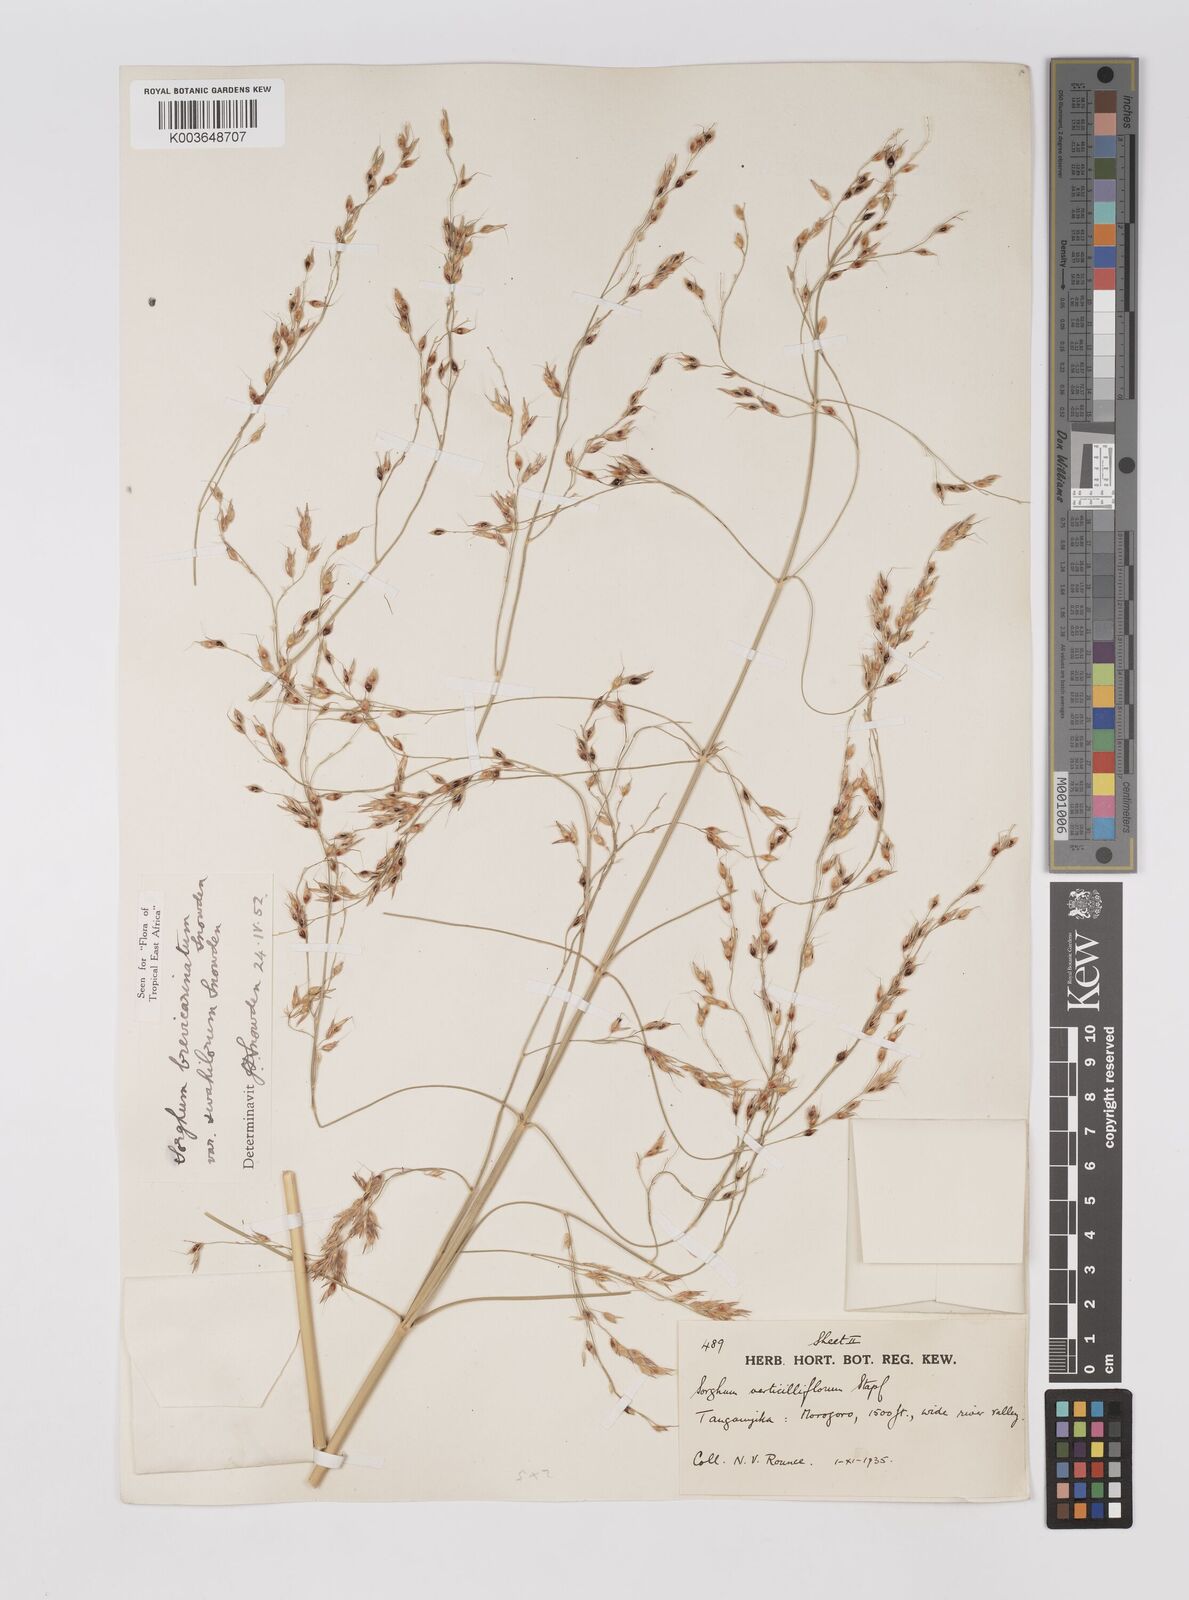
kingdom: Plantae
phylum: Tracheophyta
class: Liliopsida
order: Poales
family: Poaceae
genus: Sorghum
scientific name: Sorghum arundinaceum
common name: Sorghum
